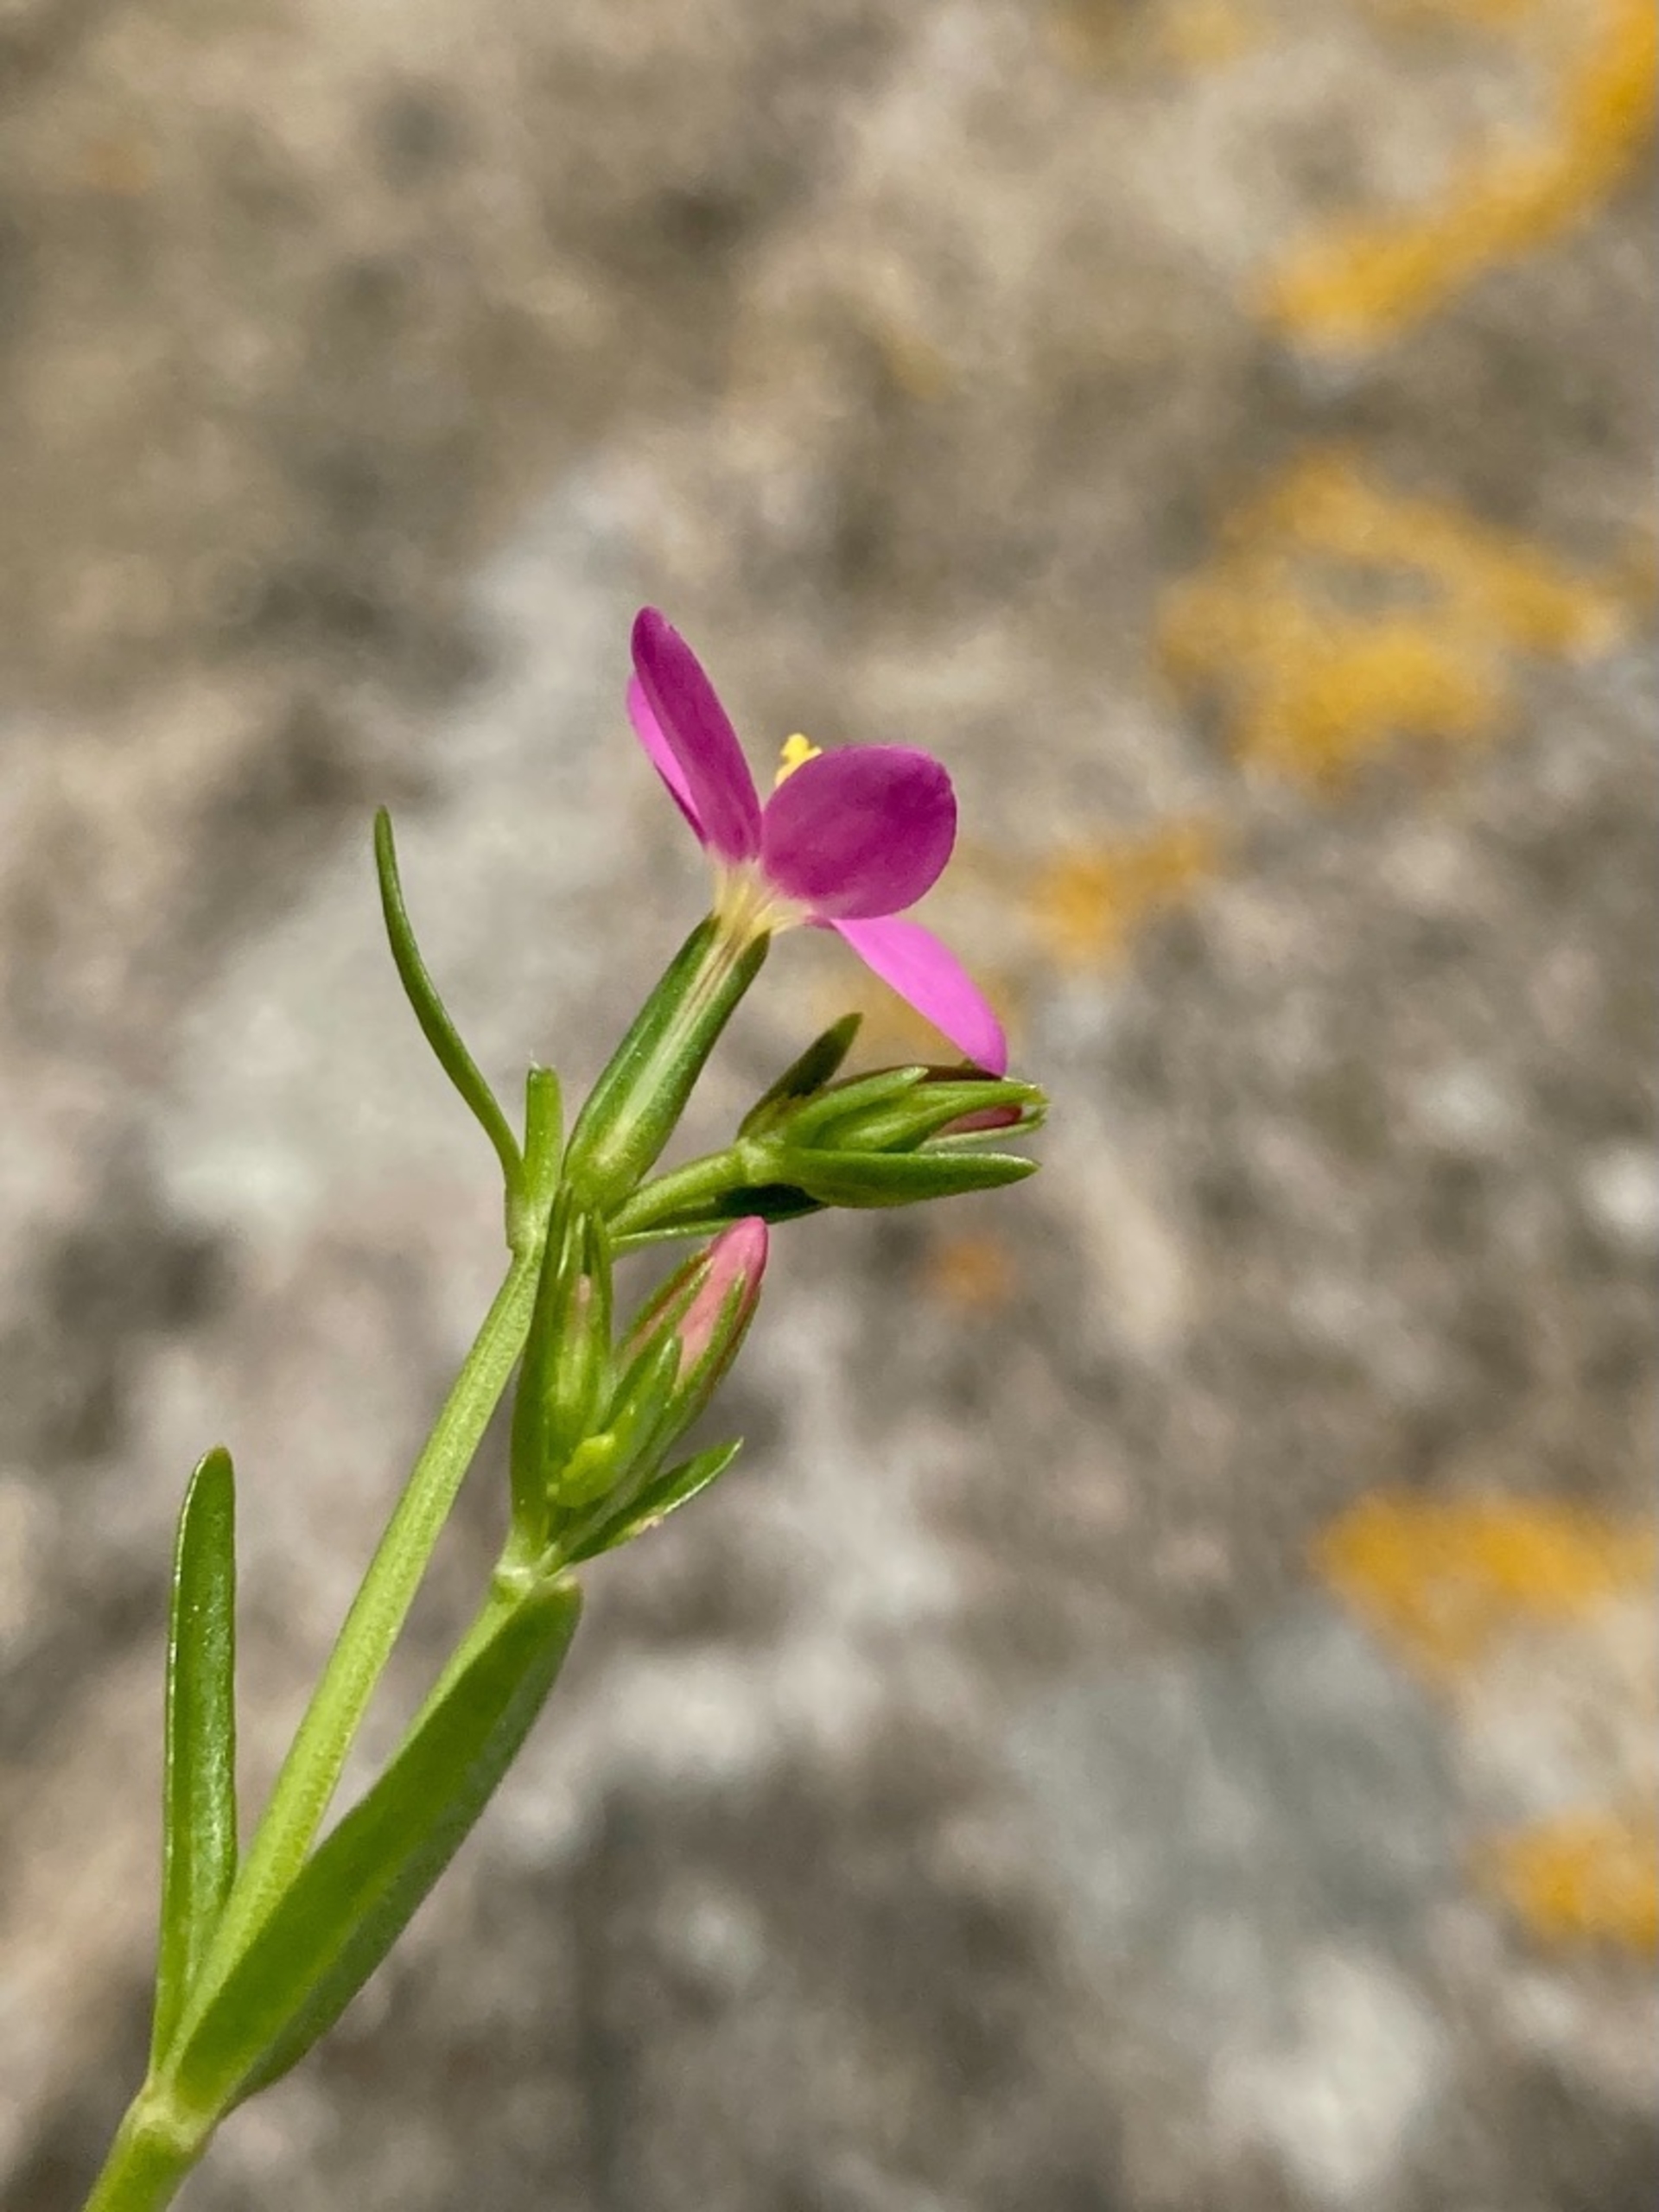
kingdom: Plantae
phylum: Tracheophyta
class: Magnoliopsida
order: Gentianales
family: Gentianaceae
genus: Centaurium
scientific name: Centaurium littorale
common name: Strand-tusindgylden
